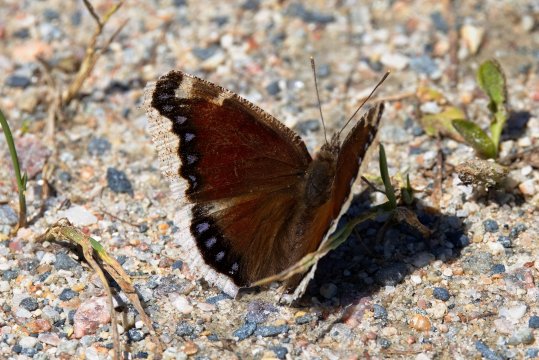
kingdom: Animalia
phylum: Arthropoda
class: Insecta
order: Lepidoptera
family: Nymphalidae
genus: Nymphalis
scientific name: Nymphalis antiopa
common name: Mourning Cloak
